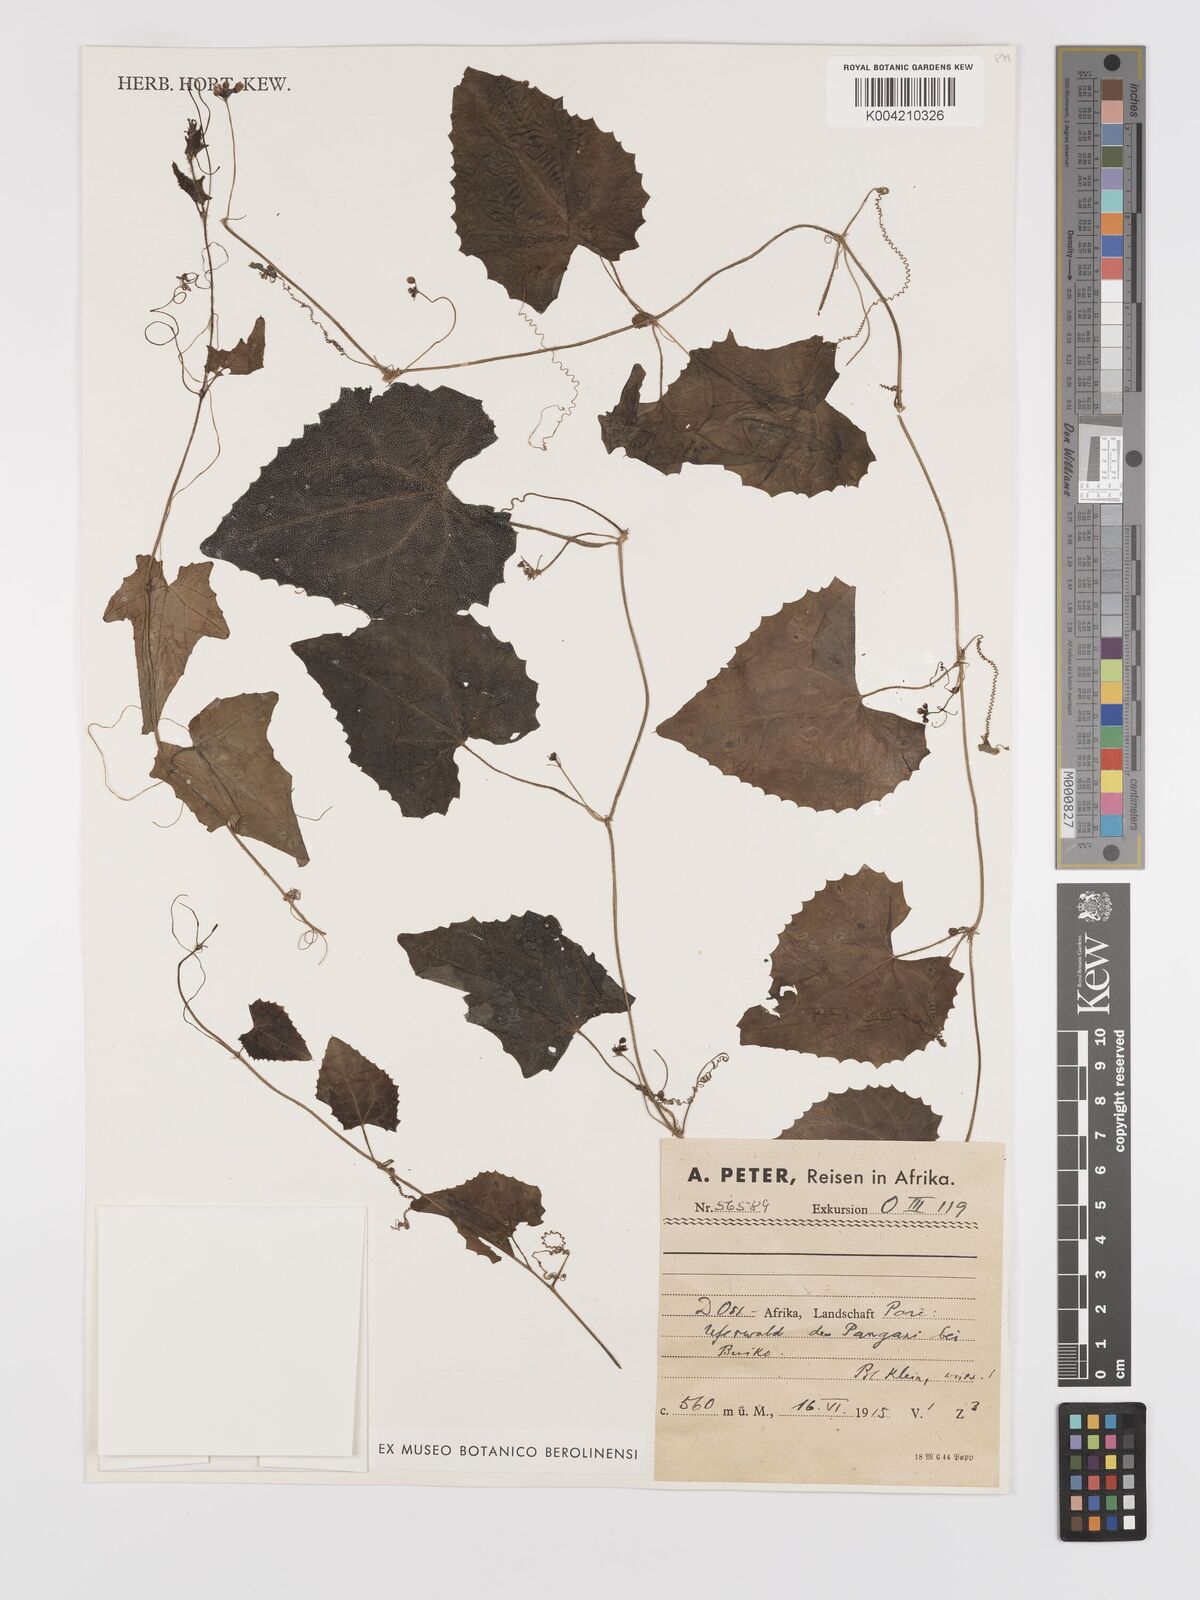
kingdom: Plantae
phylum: Tracheophyta
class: Magnoliopsida
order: Cucurbitales
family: Cucurbitaceae
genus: Zehneria
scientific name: Zehneria scabra
